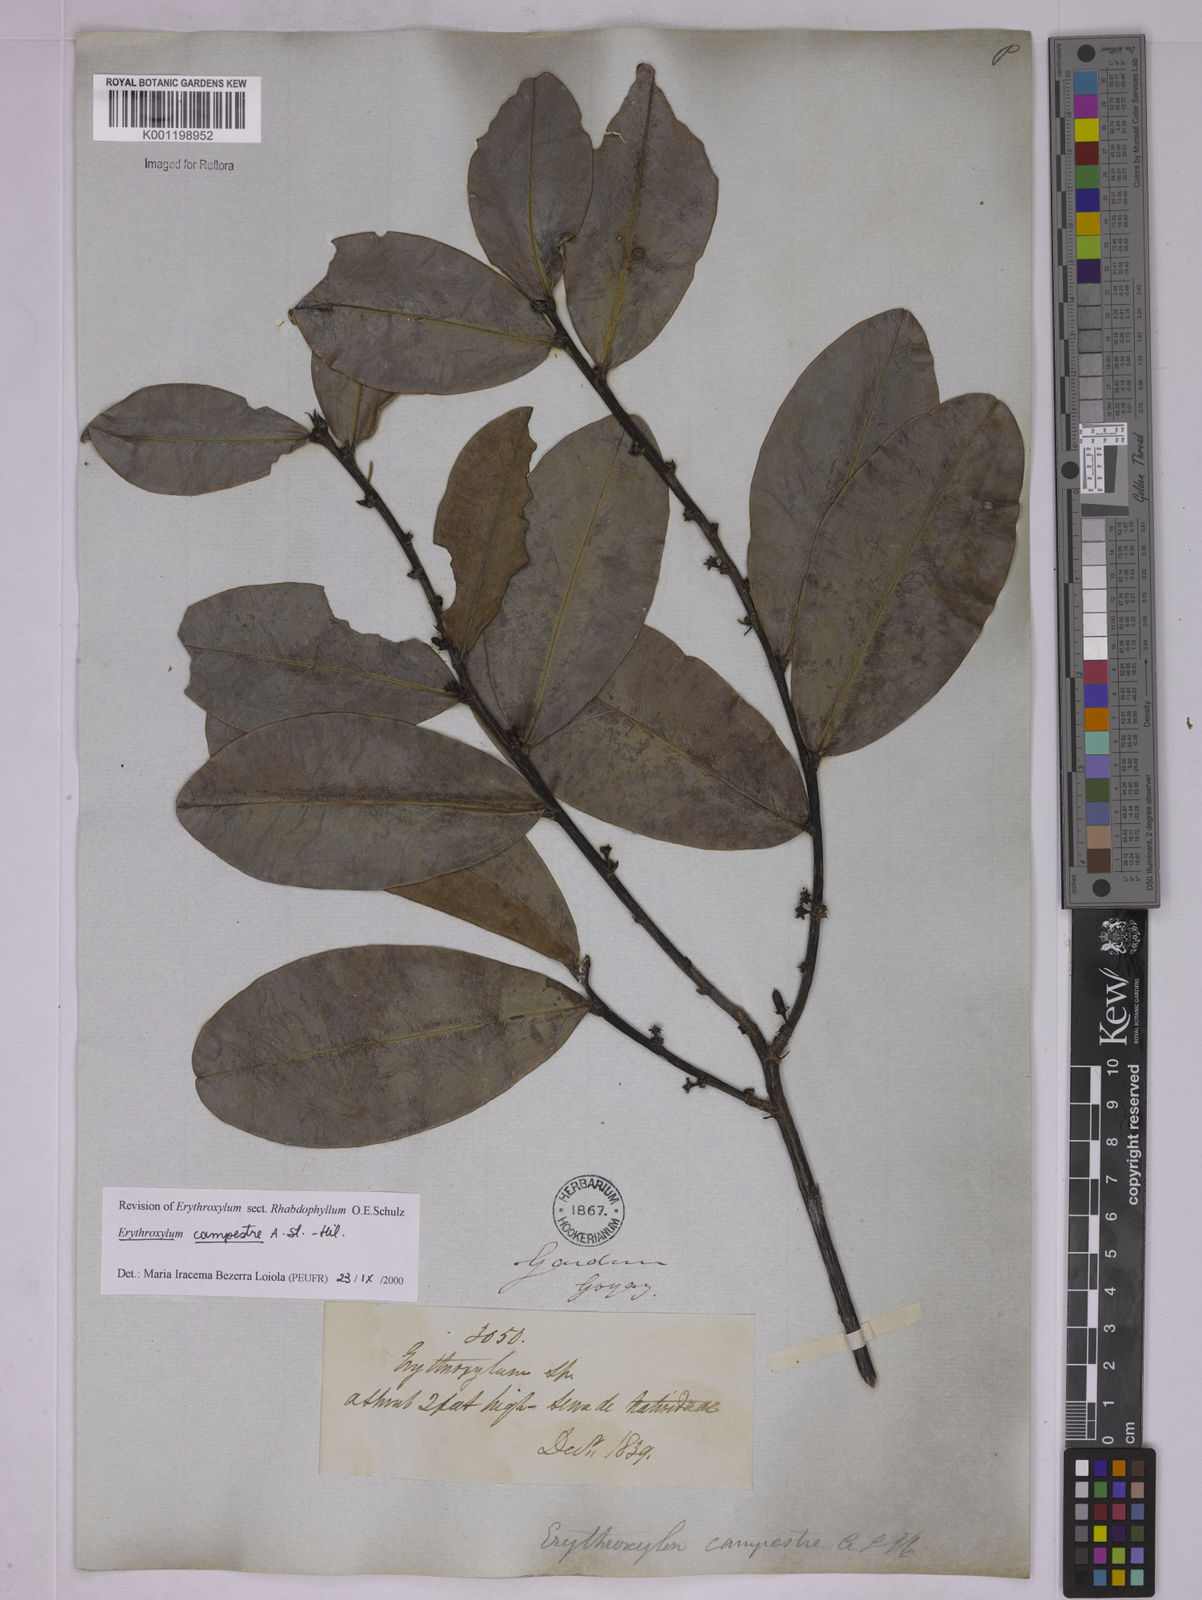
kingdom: Plantae
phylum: Tracheophyta
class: Magnoliopsida
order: Malpighiales
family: Erythroxylaceae
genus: Erythroxylum
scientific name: Erythroxylum campestre
